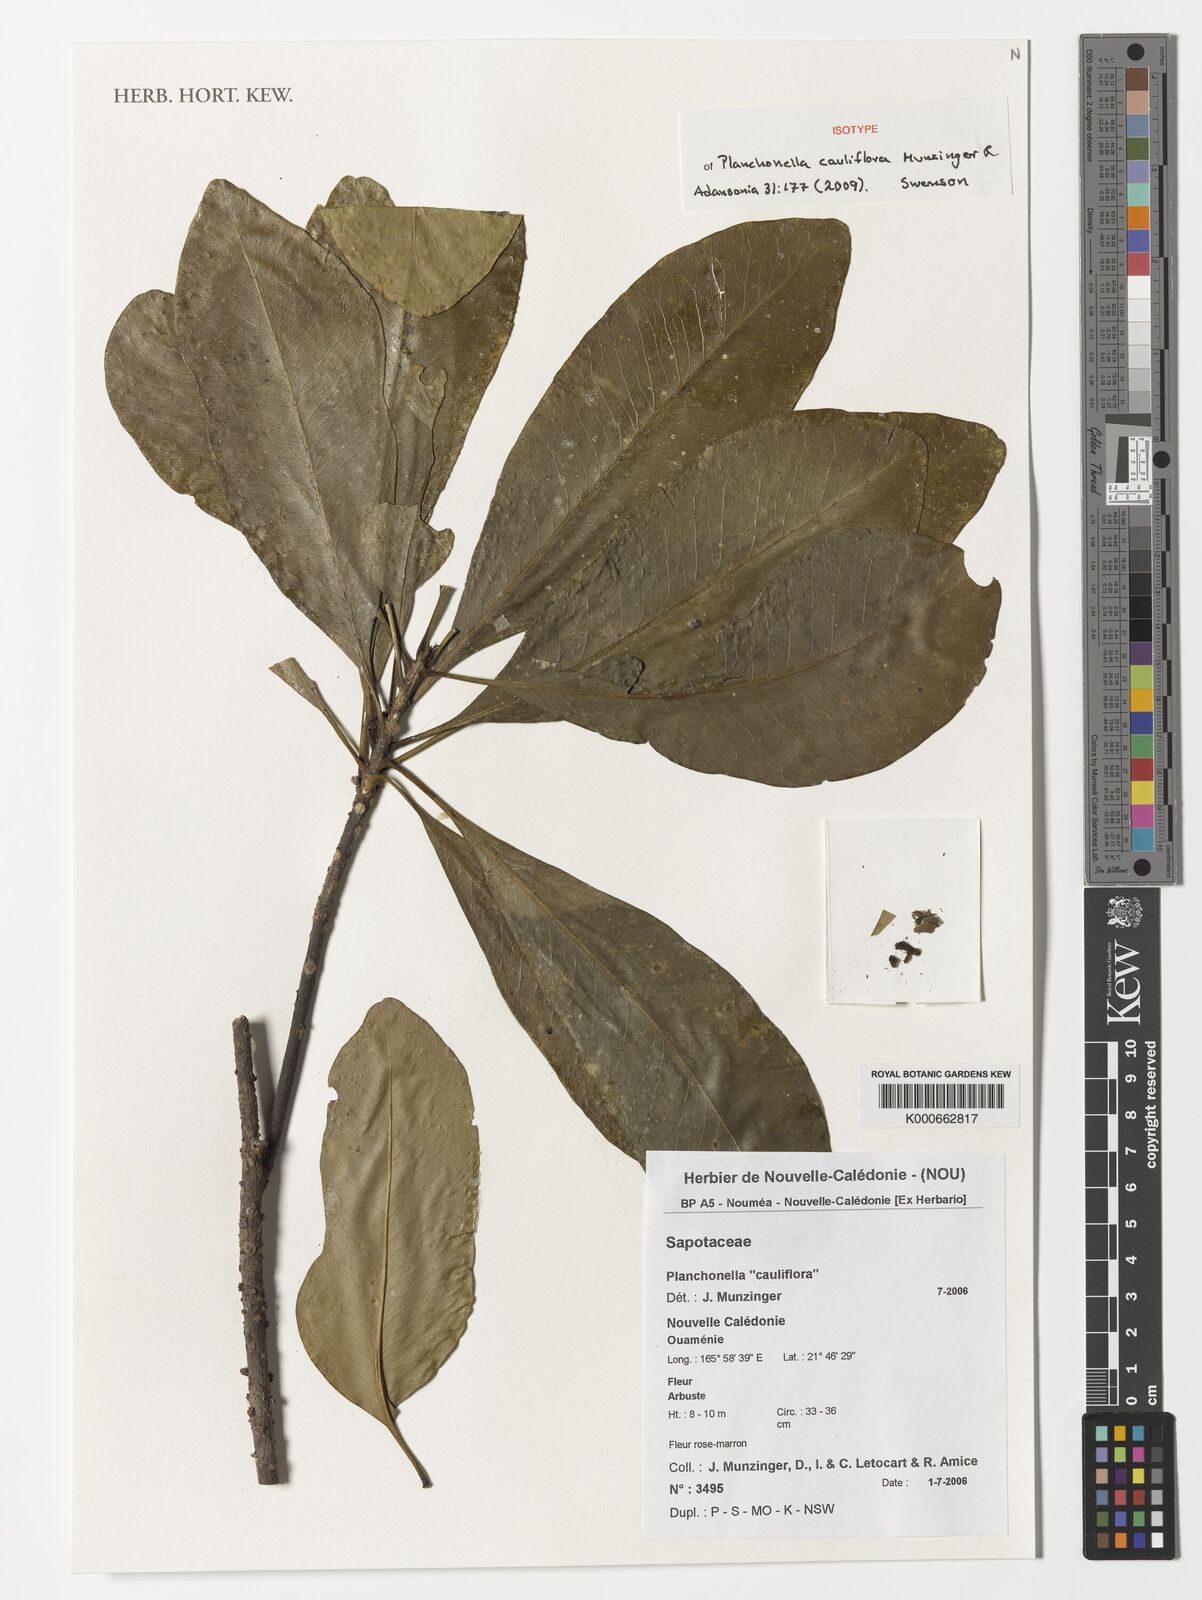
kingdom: Plantae
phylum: Tracheophyta
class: Magnoliopsida
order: Ericales
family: Sapotaceae
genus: Planchonella
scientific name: Planchonella cauliflora
